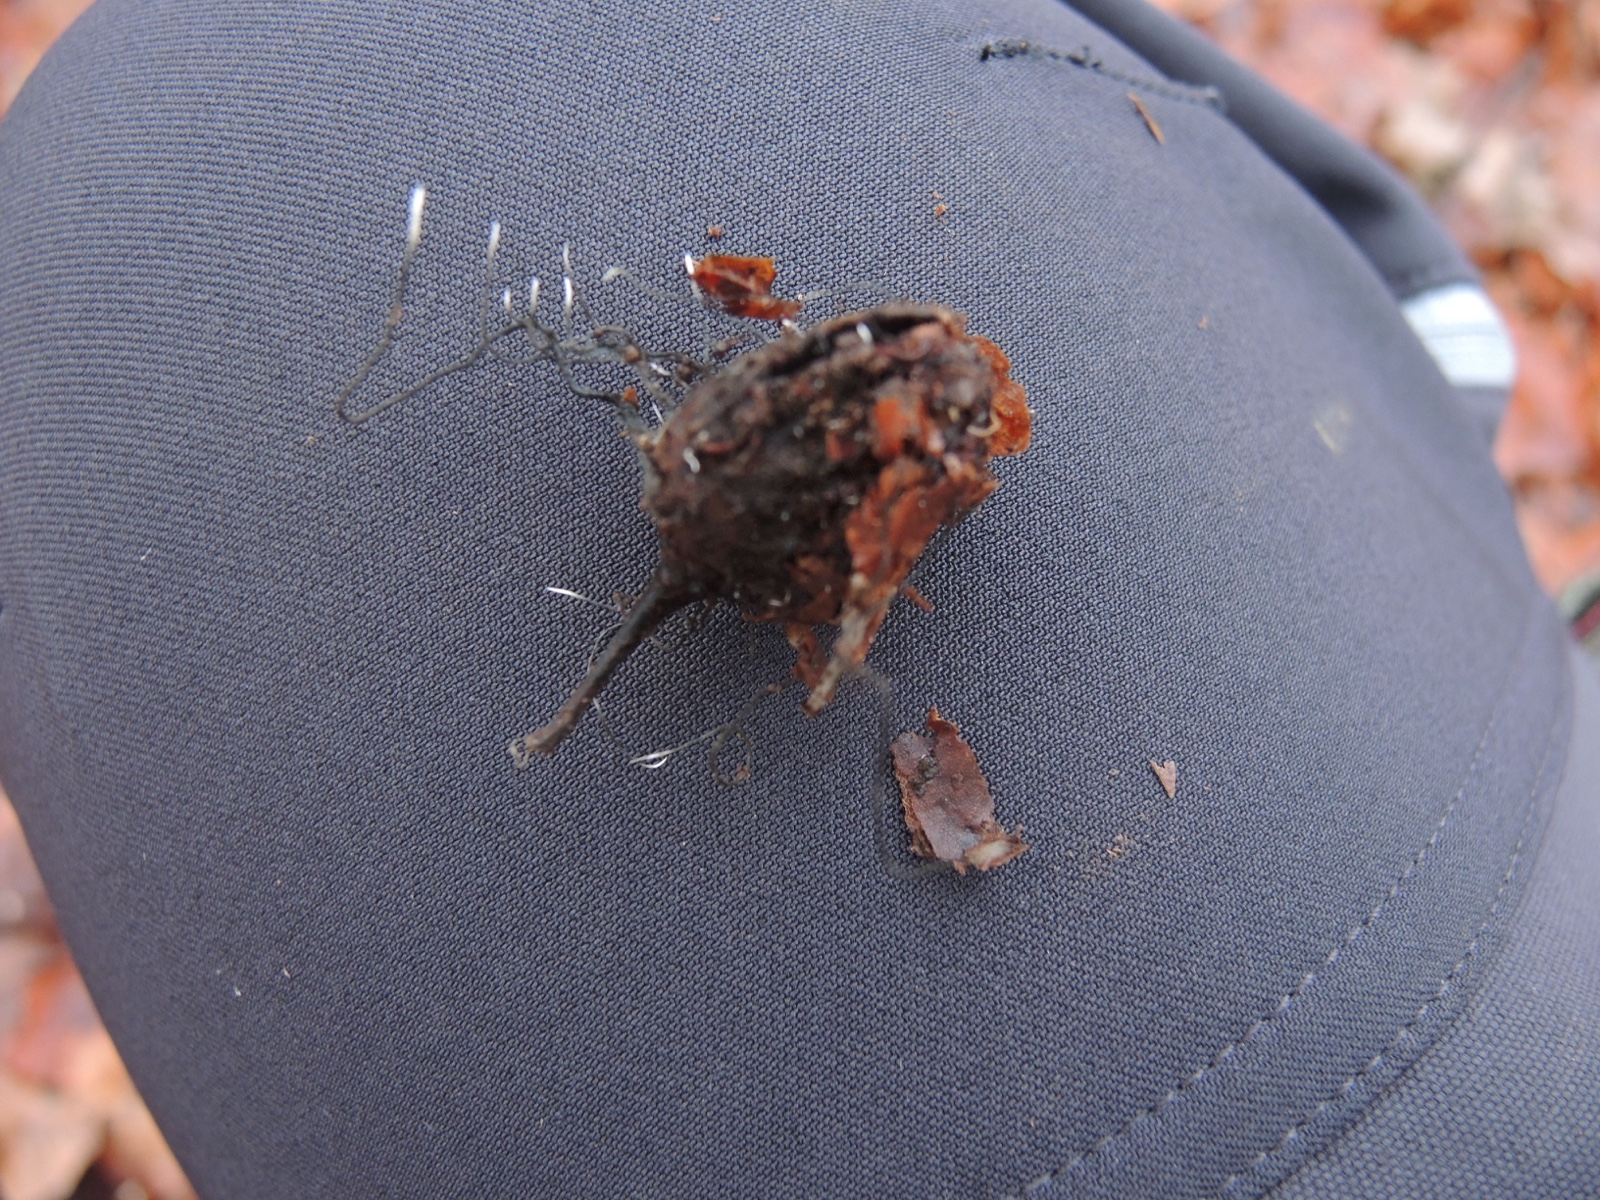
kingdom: Fungi
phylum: Ascomycota
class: Sordariomycetes
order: Xylariales
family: Xylariaceae
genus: Xylaria
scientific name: Xylaria carpophila
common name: bogskål-stødsvamp
